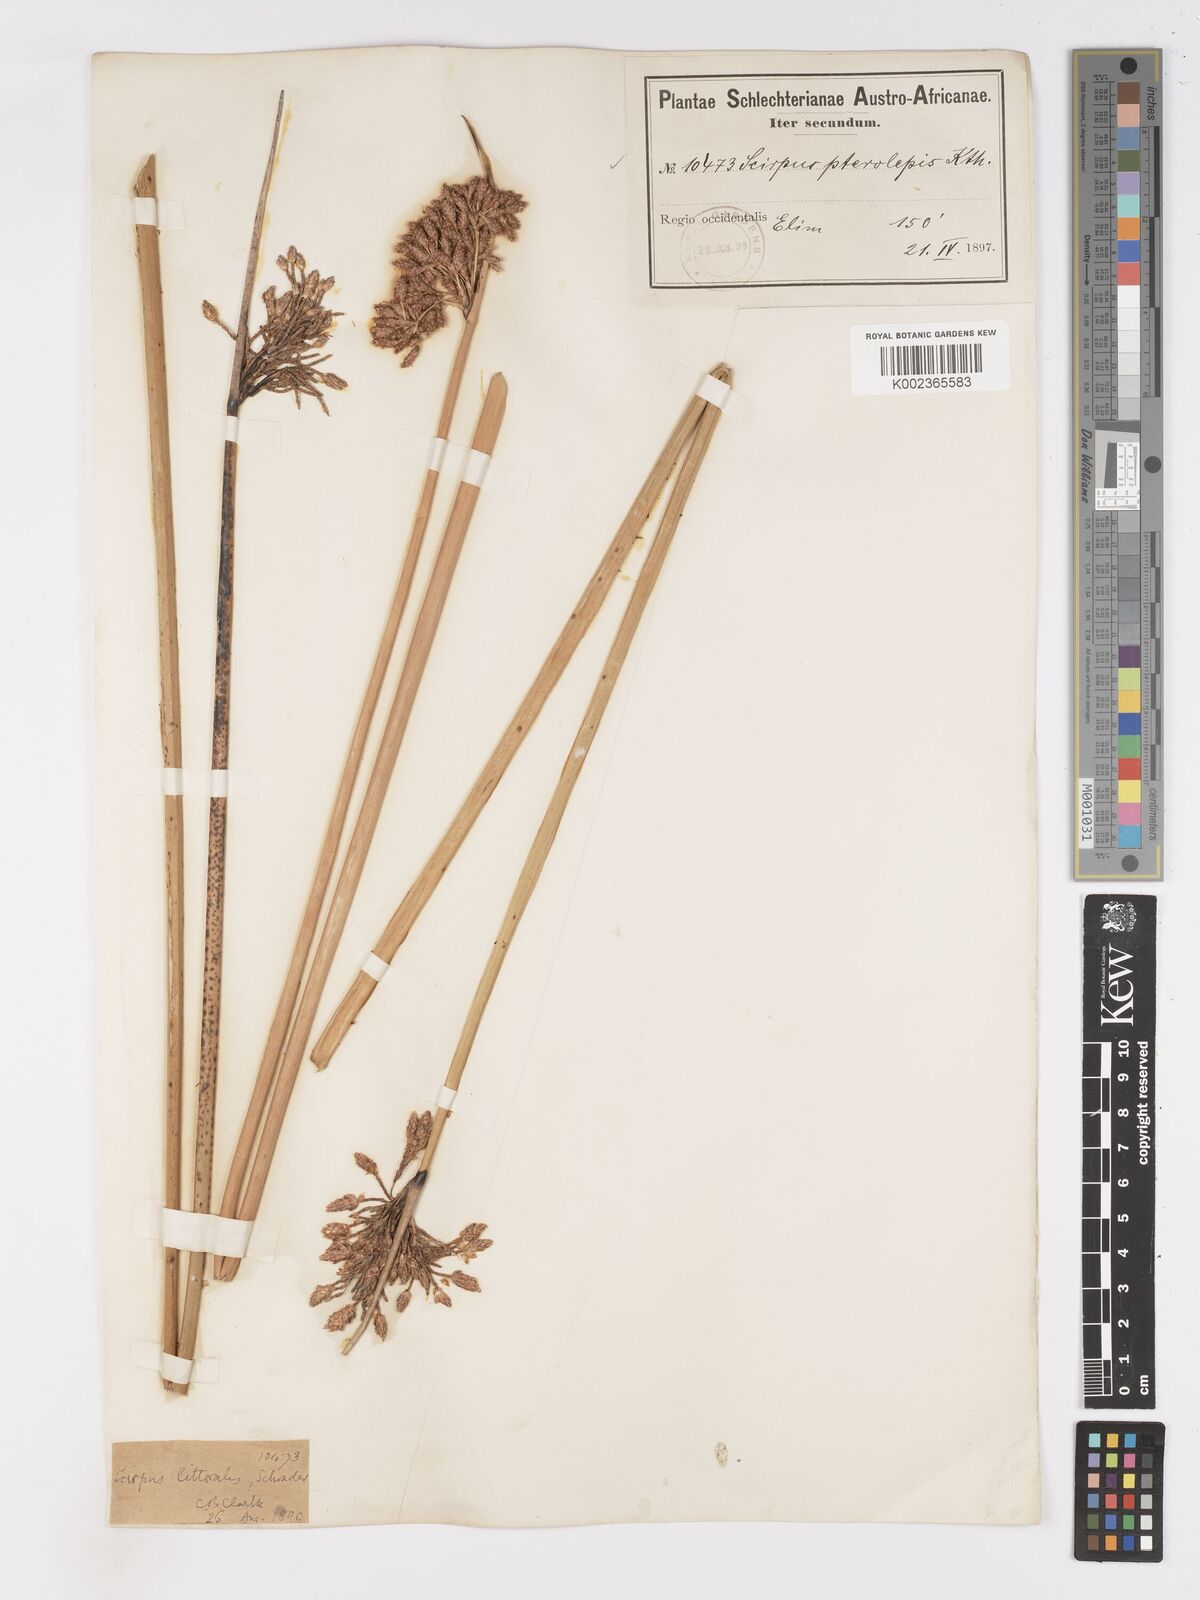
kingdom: Plantae
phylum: Tracheophyta
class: Liliopsida
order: Poales
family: Cyperaceae
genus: Schoenoplectus
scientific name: Schoenoplectus
